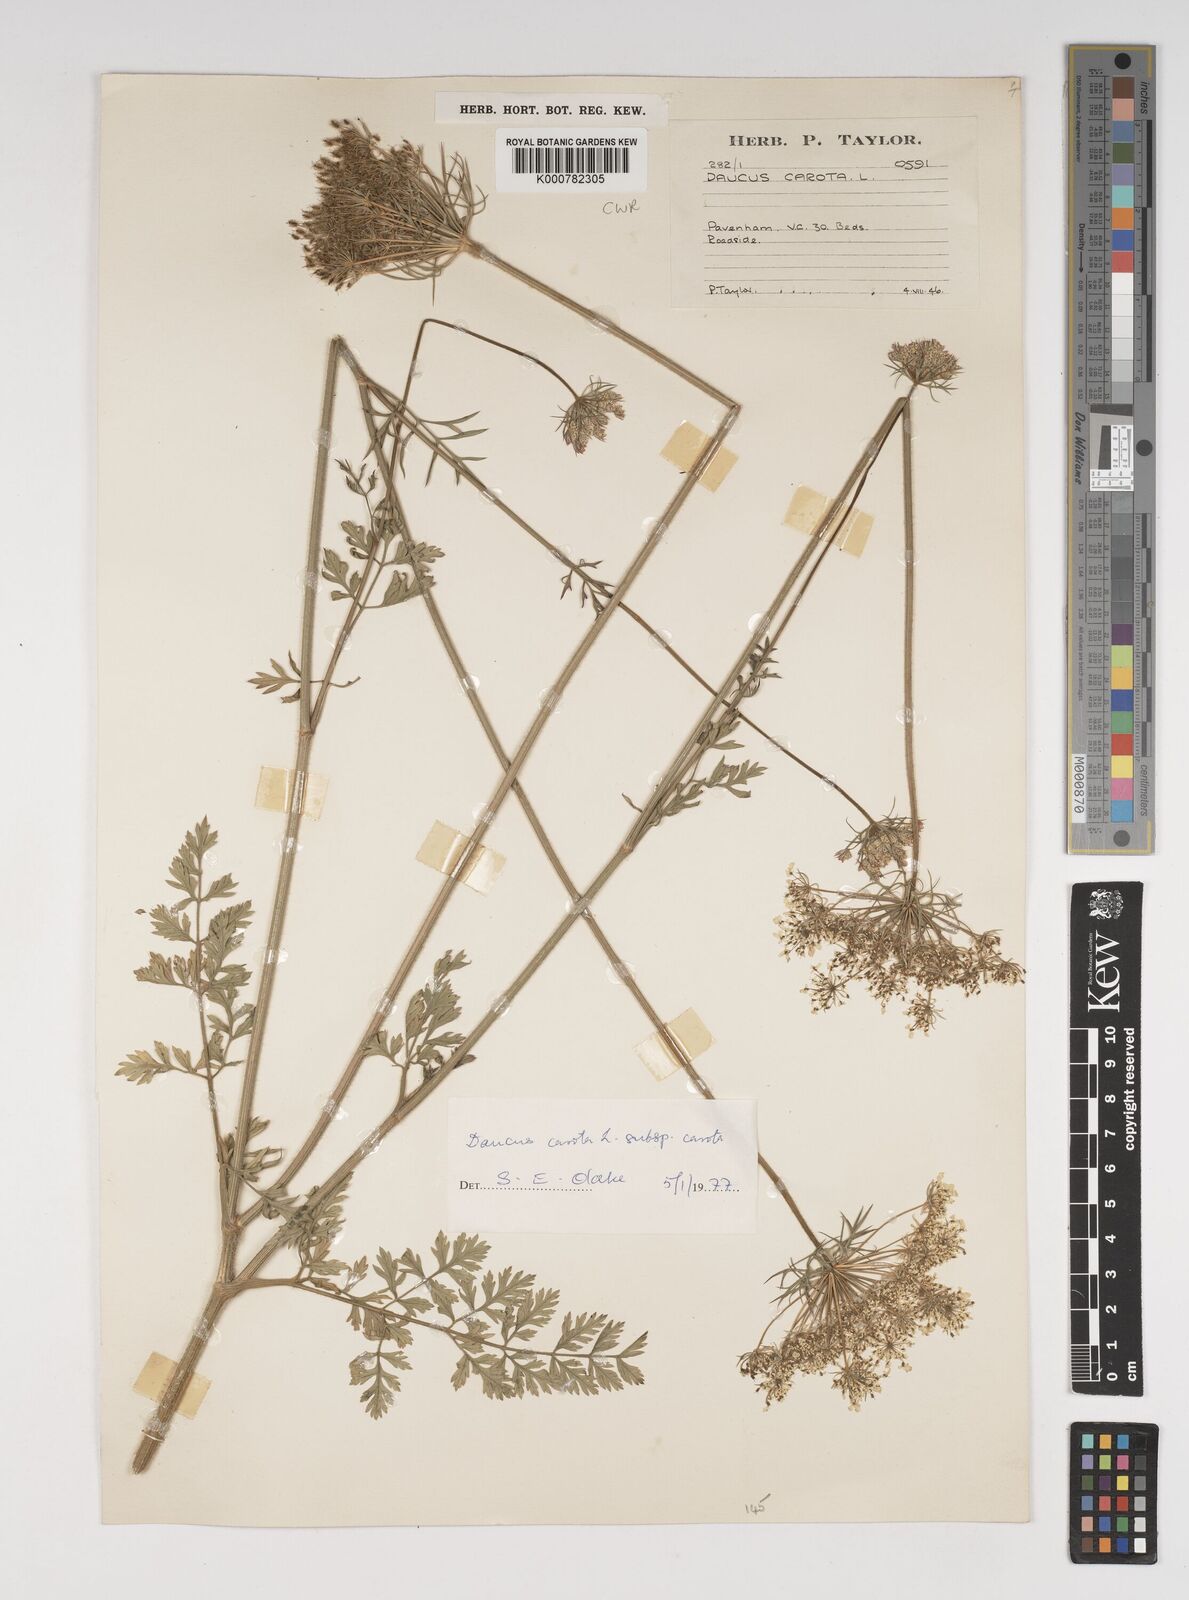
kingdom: Plantae
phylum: Tracheophyta
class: Magnoliopsida
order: Apiales
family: Apiaceae
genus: Daucus
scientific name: Daucus carota
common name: Wild carrot
